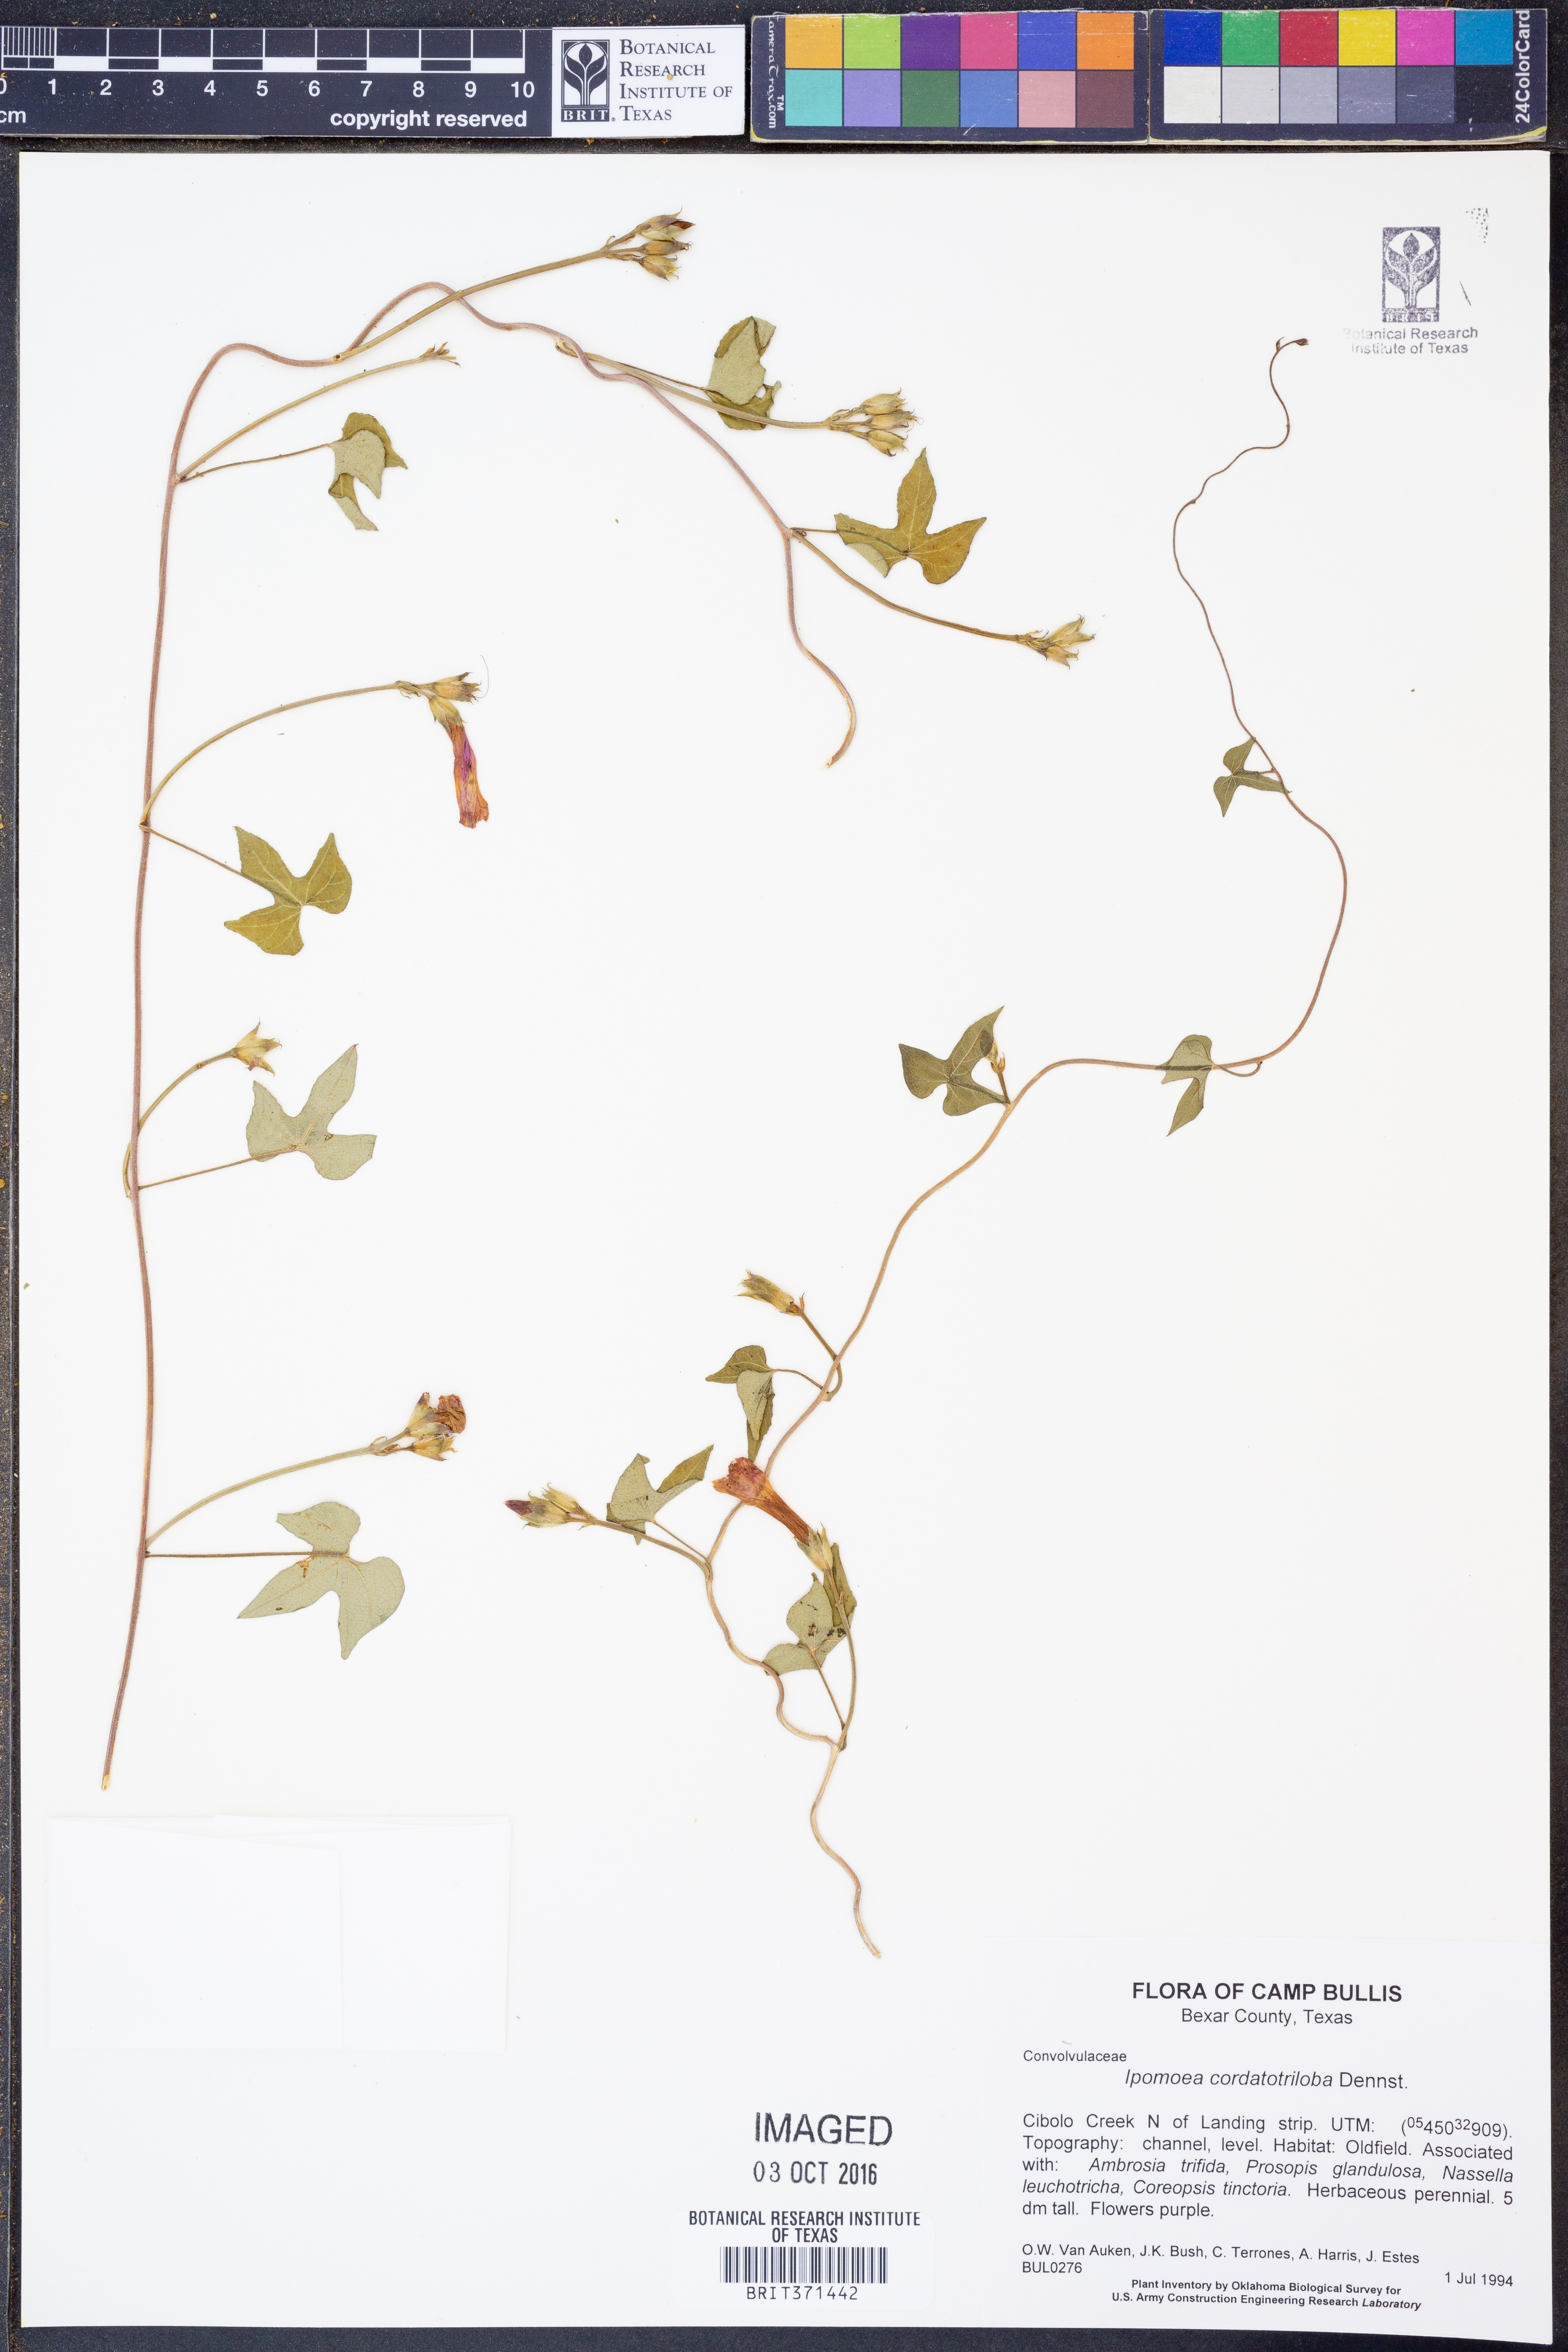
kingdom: Plantae
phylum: Tracheophyta
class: Magnoliopsida
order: Solanales
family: Convolvulaceae
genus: Ipomoea
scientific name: Ipomoea cordatotriloba
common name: Cotton morning glory
